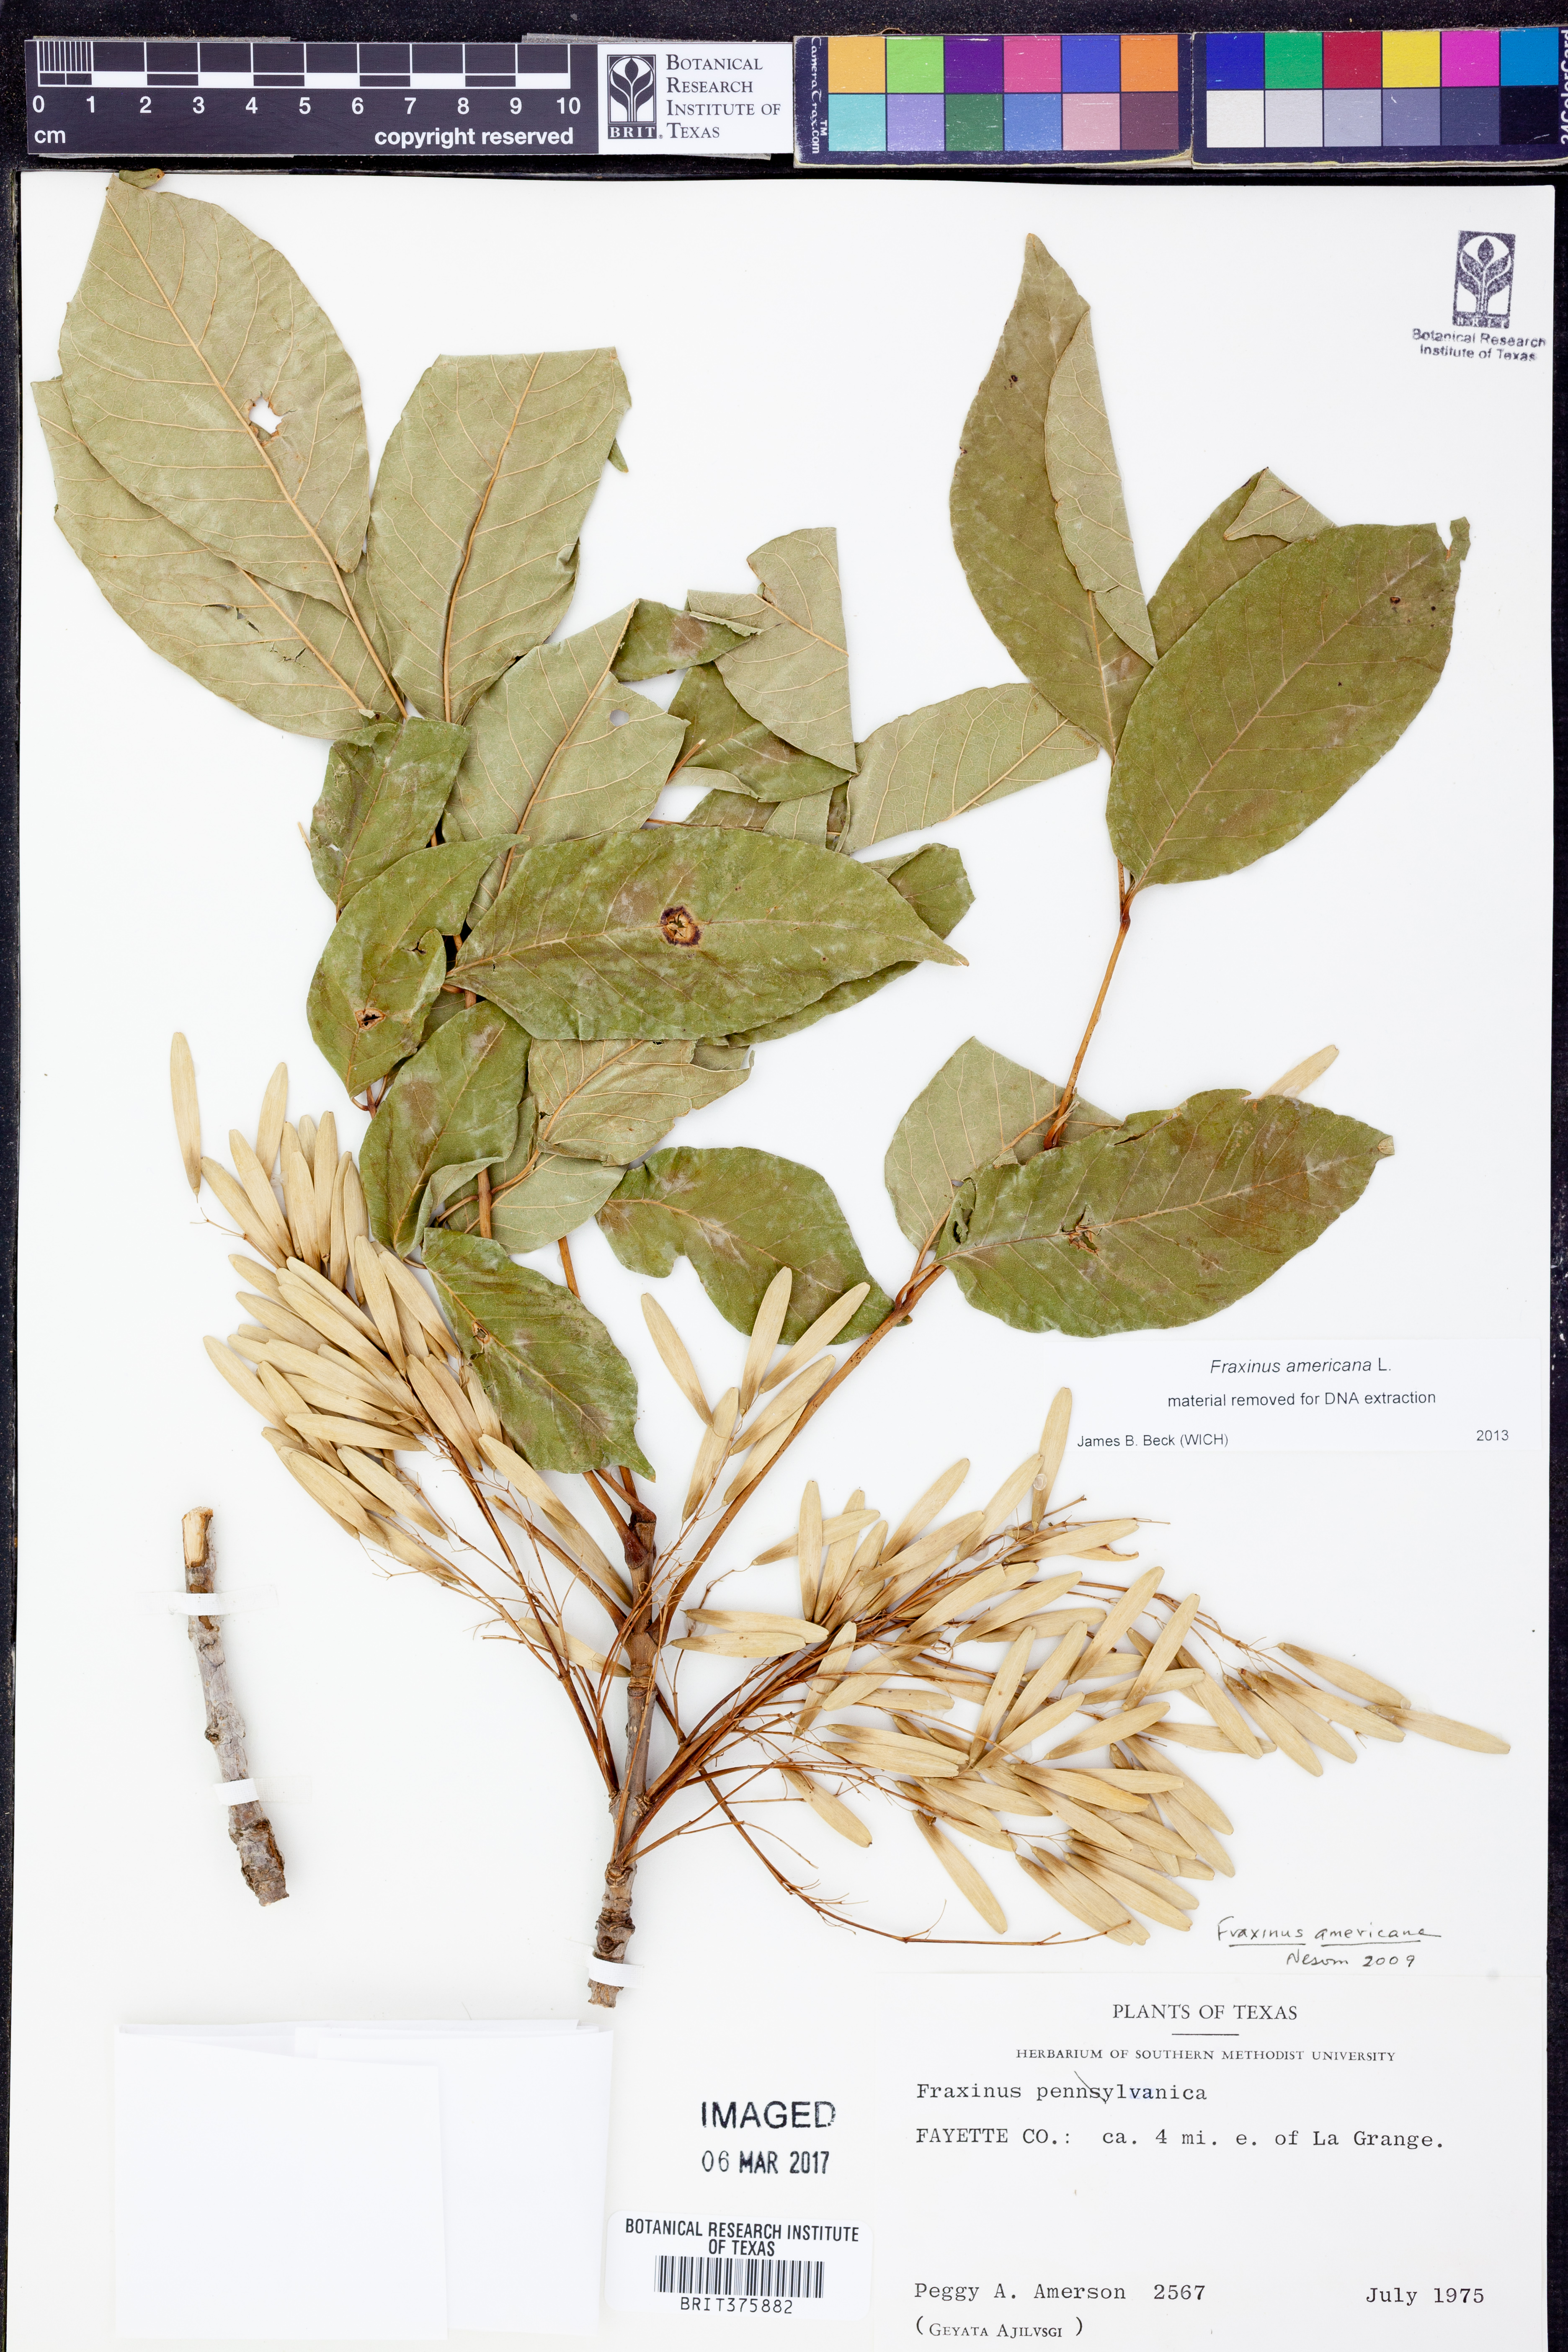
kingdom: Plantae
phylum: Tracheophyta
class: Magnoliopsida
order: Lamiales
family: Oleaceae
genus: Fraxinus
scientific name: Fraxinus americana
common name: White ash
